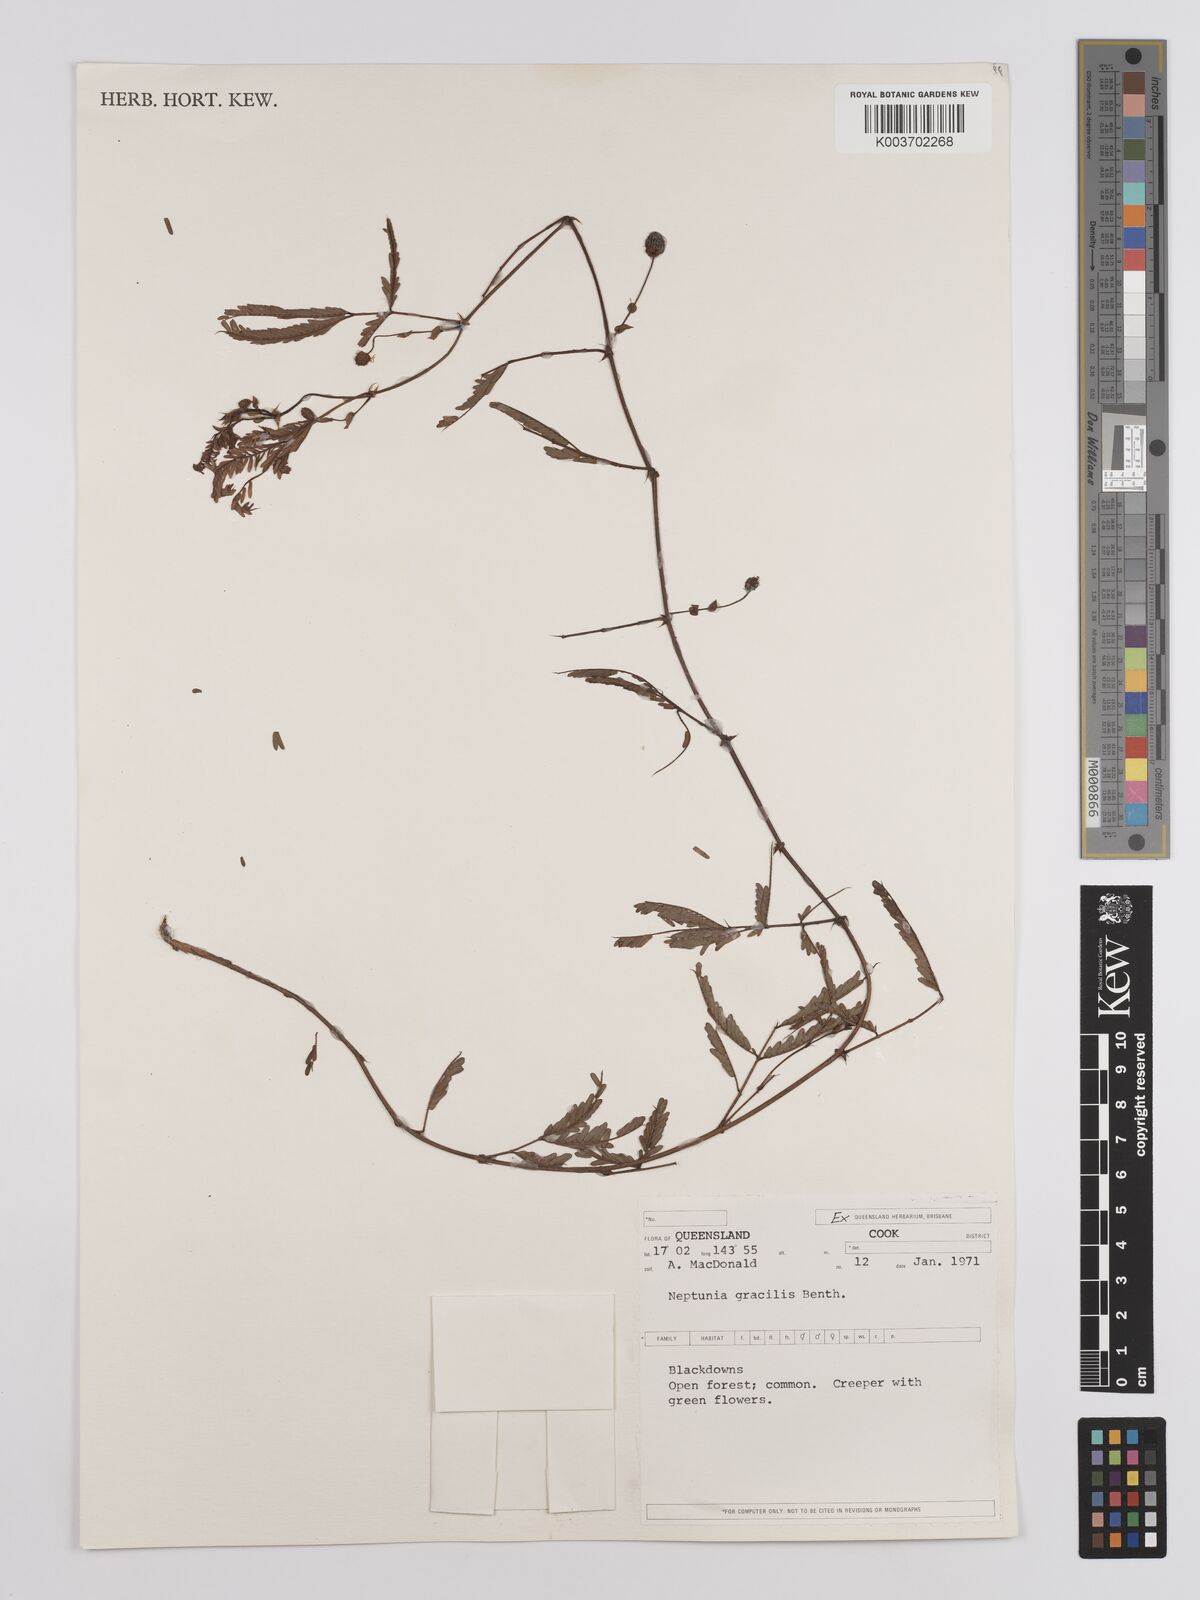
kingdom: Plantae
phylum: Tracheophyta
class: Magnoliopsida
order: Fabales
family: Fabaceae
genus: Neptunia
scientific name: Neptunia gracilis
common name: Sensitive-plant
